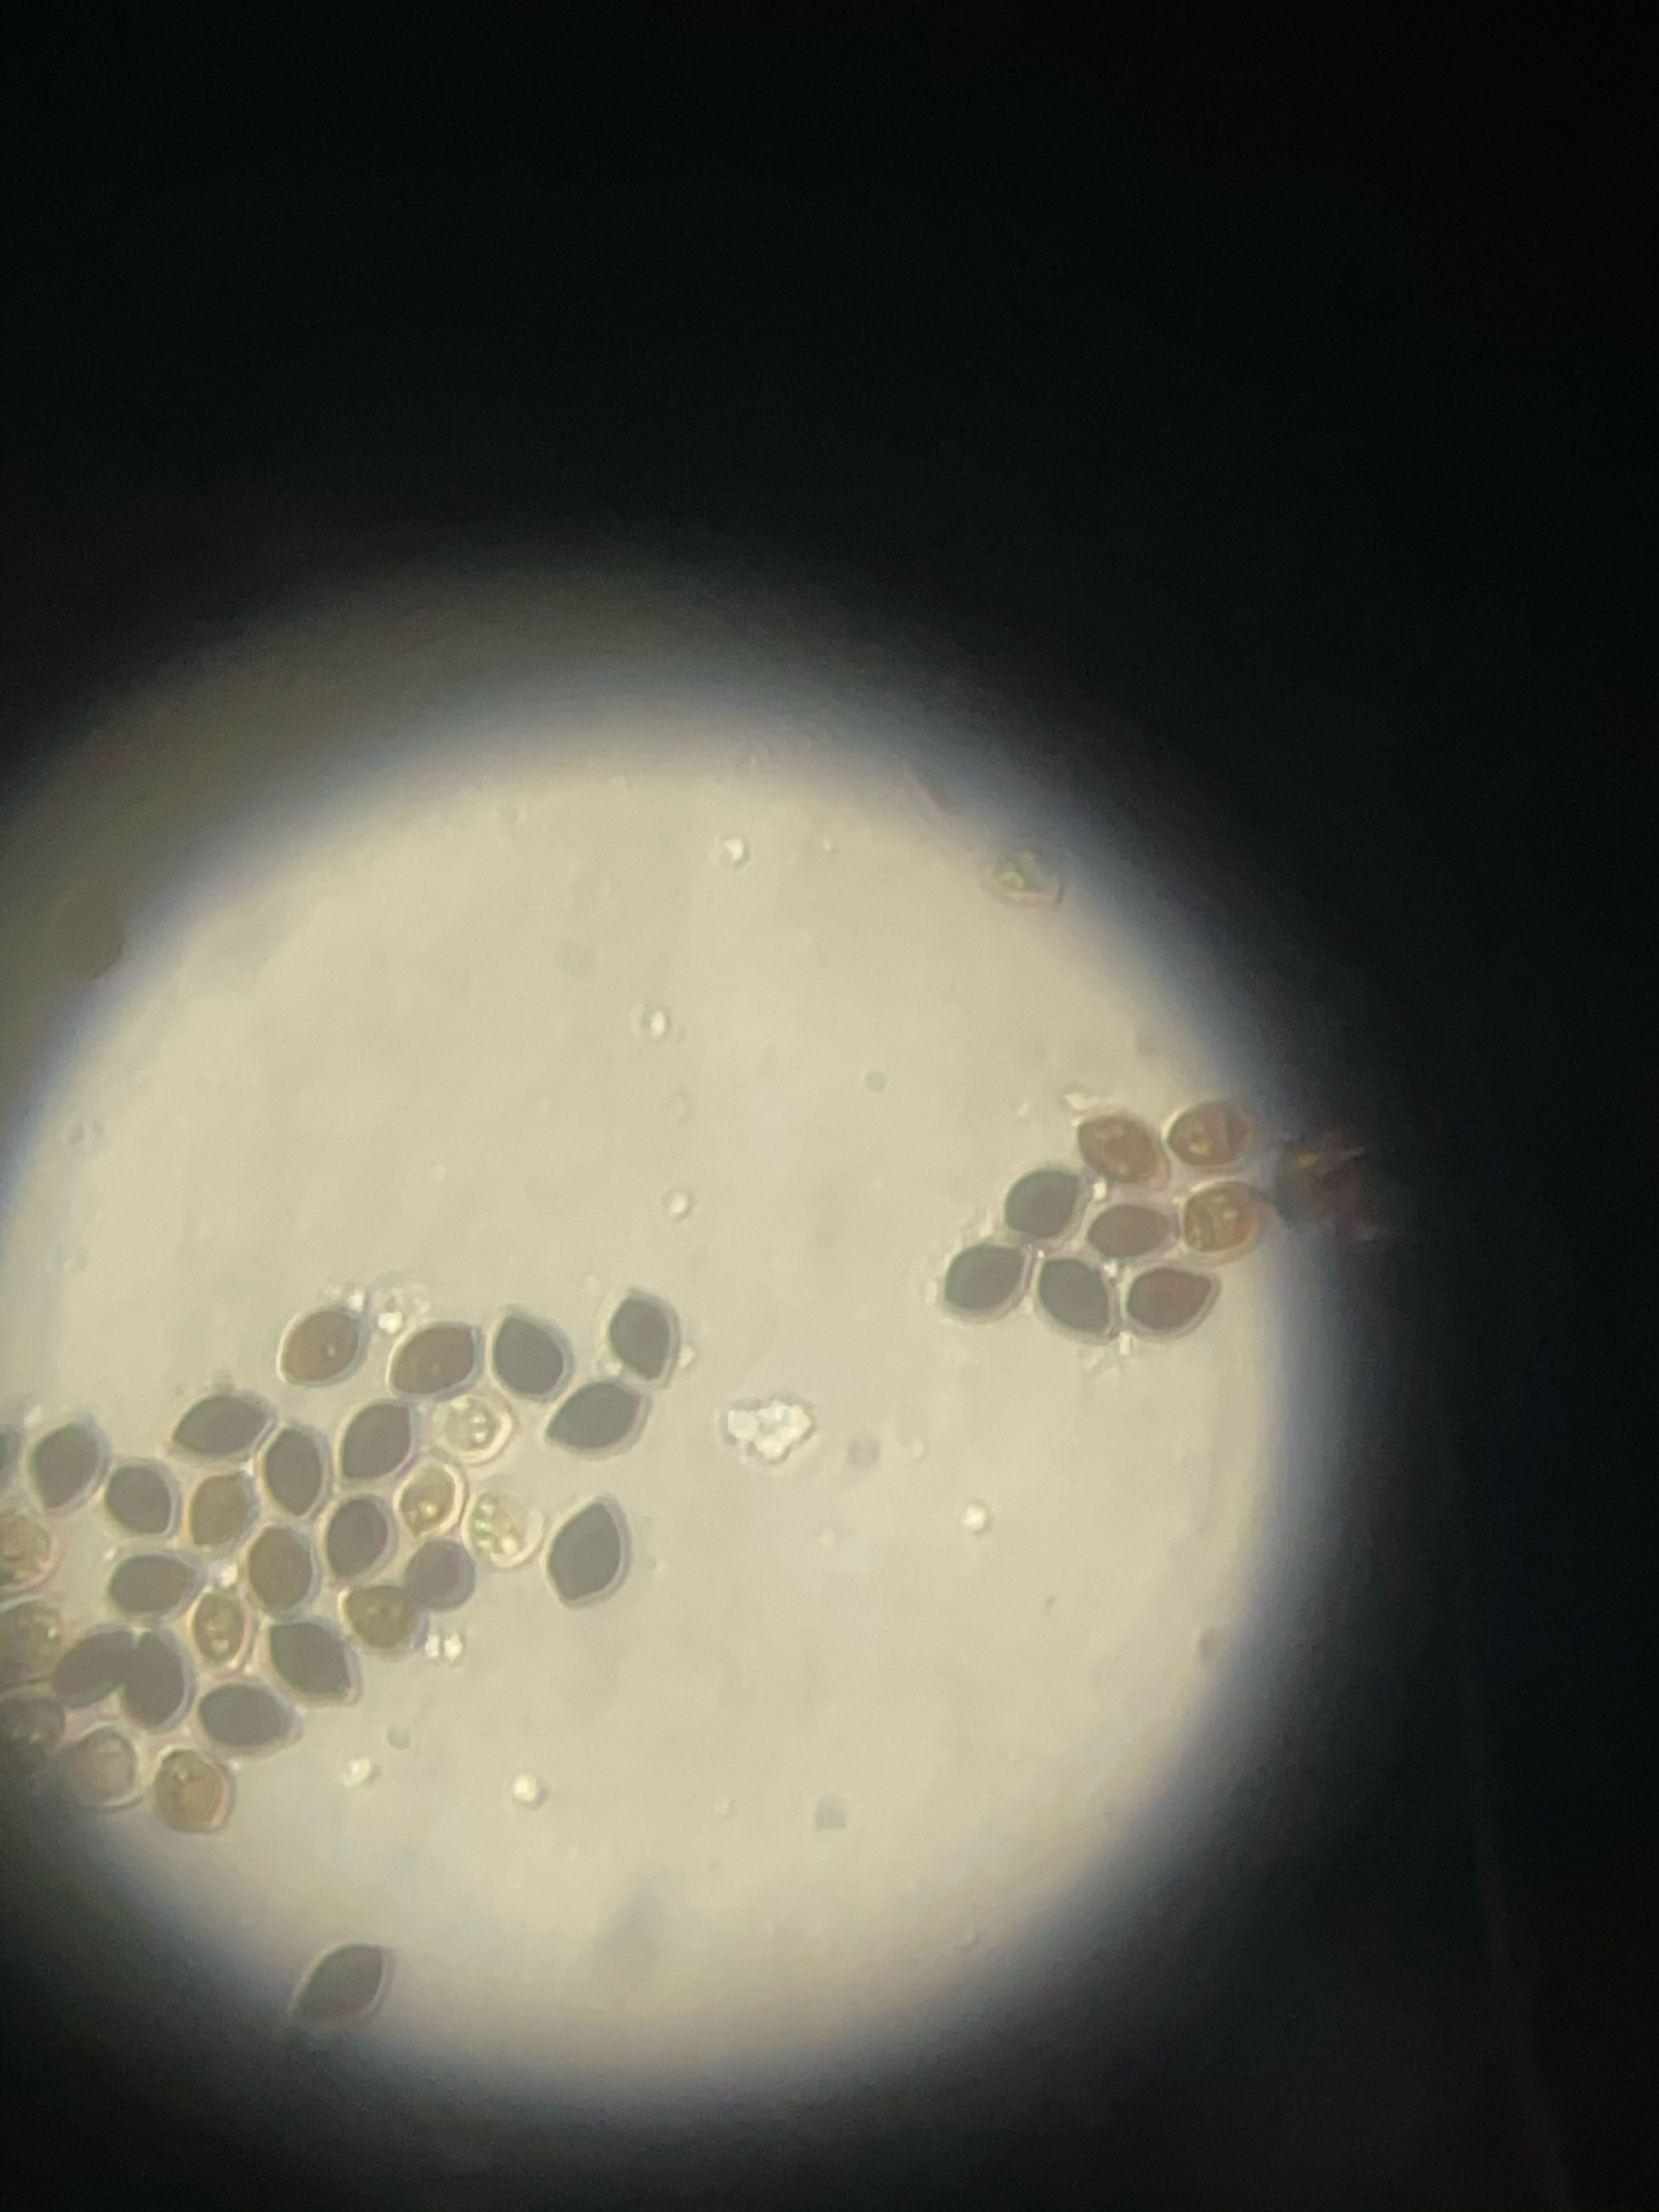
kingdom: Fungi
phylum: Basidiomycota
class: Agaricomycetes
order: Agaricales
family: Bolbitiaceae
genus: Panaeolus
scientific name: Panaeolus papilionaceus
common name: Almindelig glanshat
